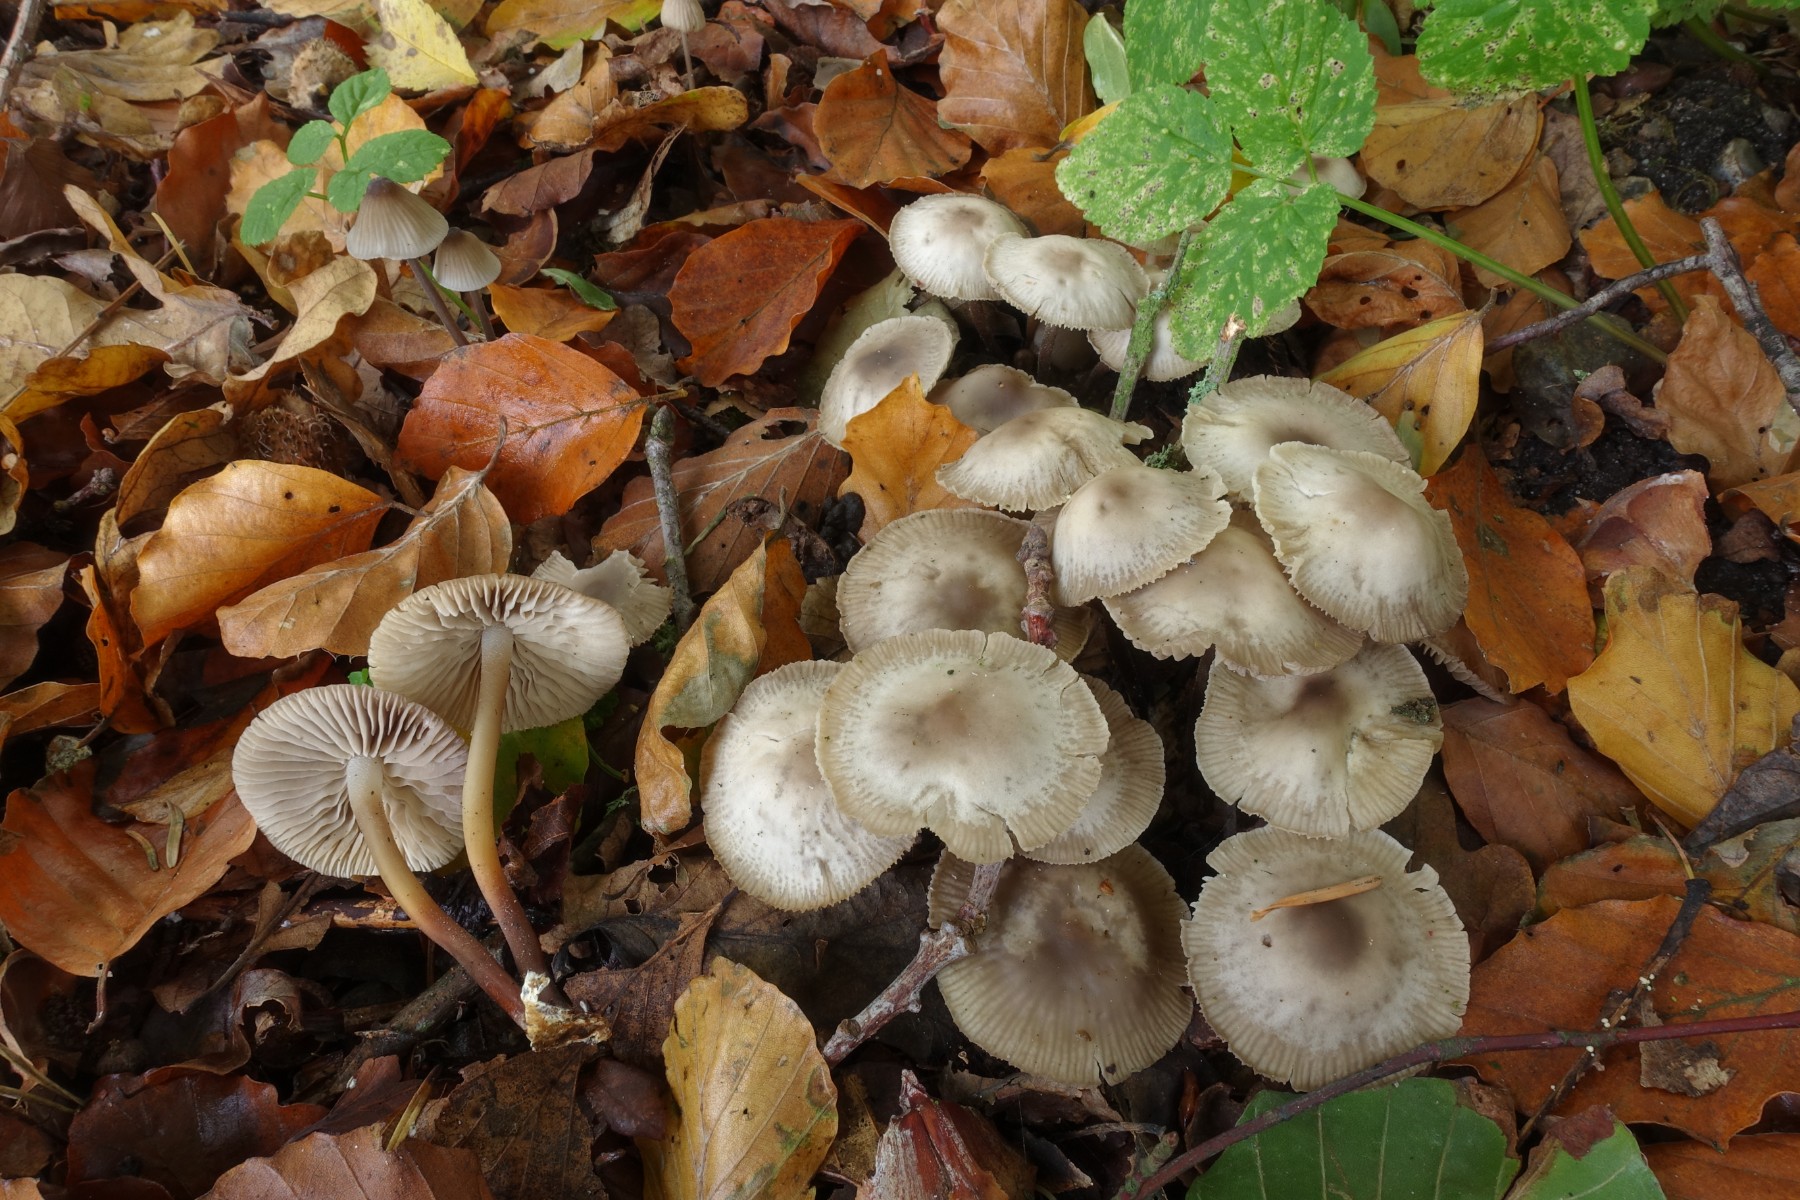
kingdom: Fungi
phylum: Basidiomycota
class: Agaricomycetes
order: Agaricales
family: Marasmiaceae
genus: Marasmius
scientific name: Marasmius wynneae
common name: hvælvet bruskhat
